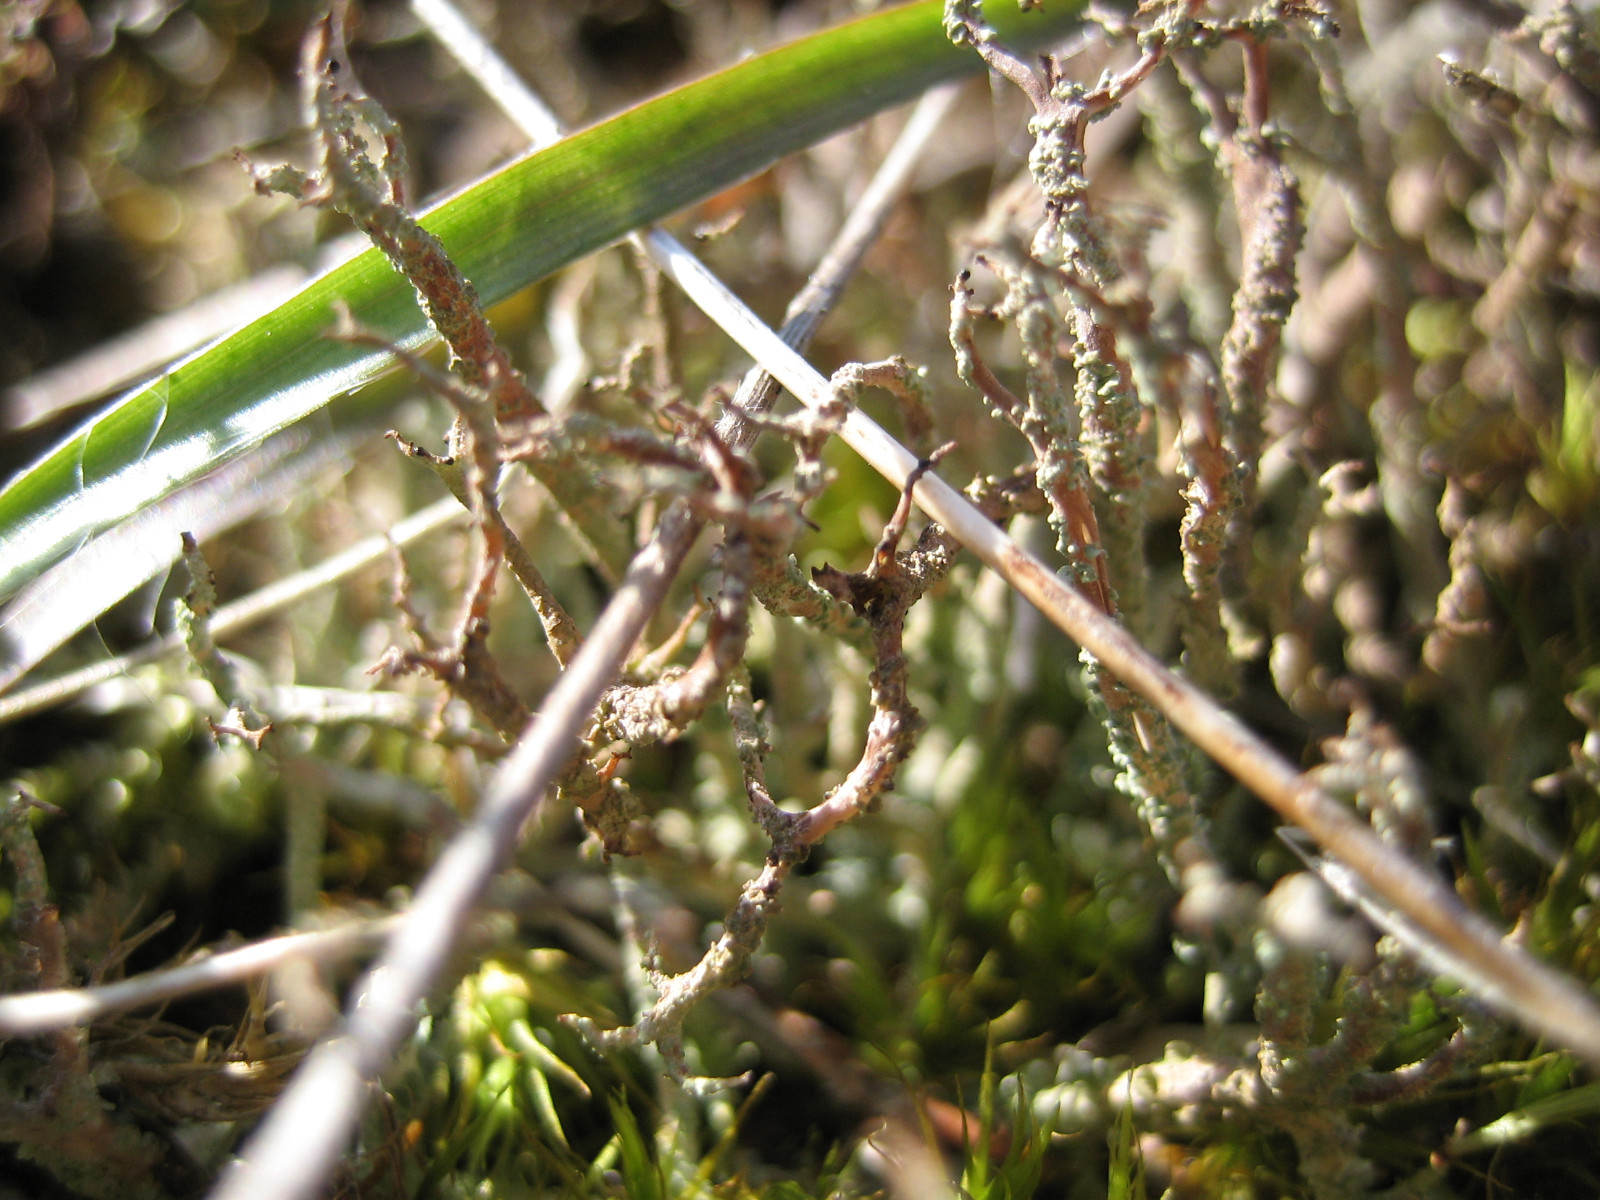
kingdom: Fungi
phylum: Ascomycota
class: Lecanoromycetes
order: Lecanorales
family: Cladoniaceae
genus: Cladonia
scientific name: Cladonia scabriuscula
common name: ru bægerlav
